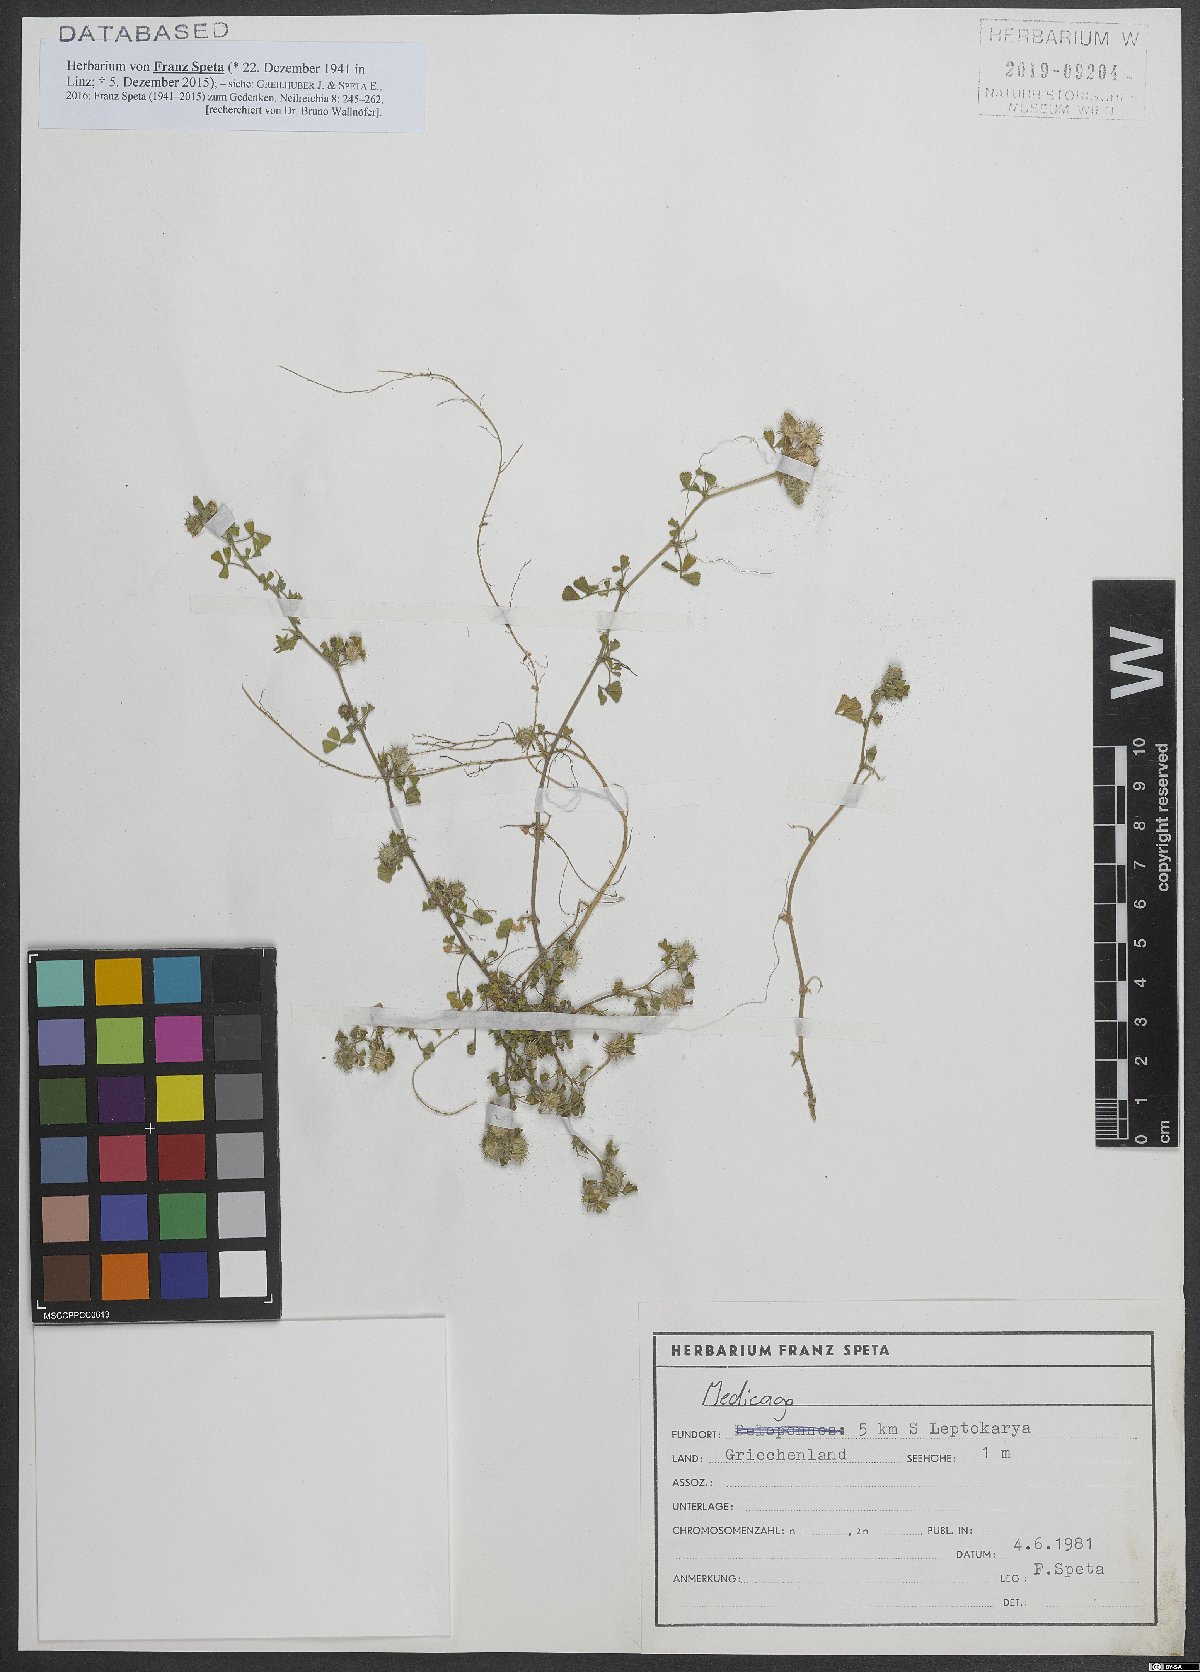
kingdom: Plantae
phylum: Tracheophyta
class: Magnoliopsida
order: Fabales
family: Fabaceae
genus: Medicago
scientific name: Medicago
